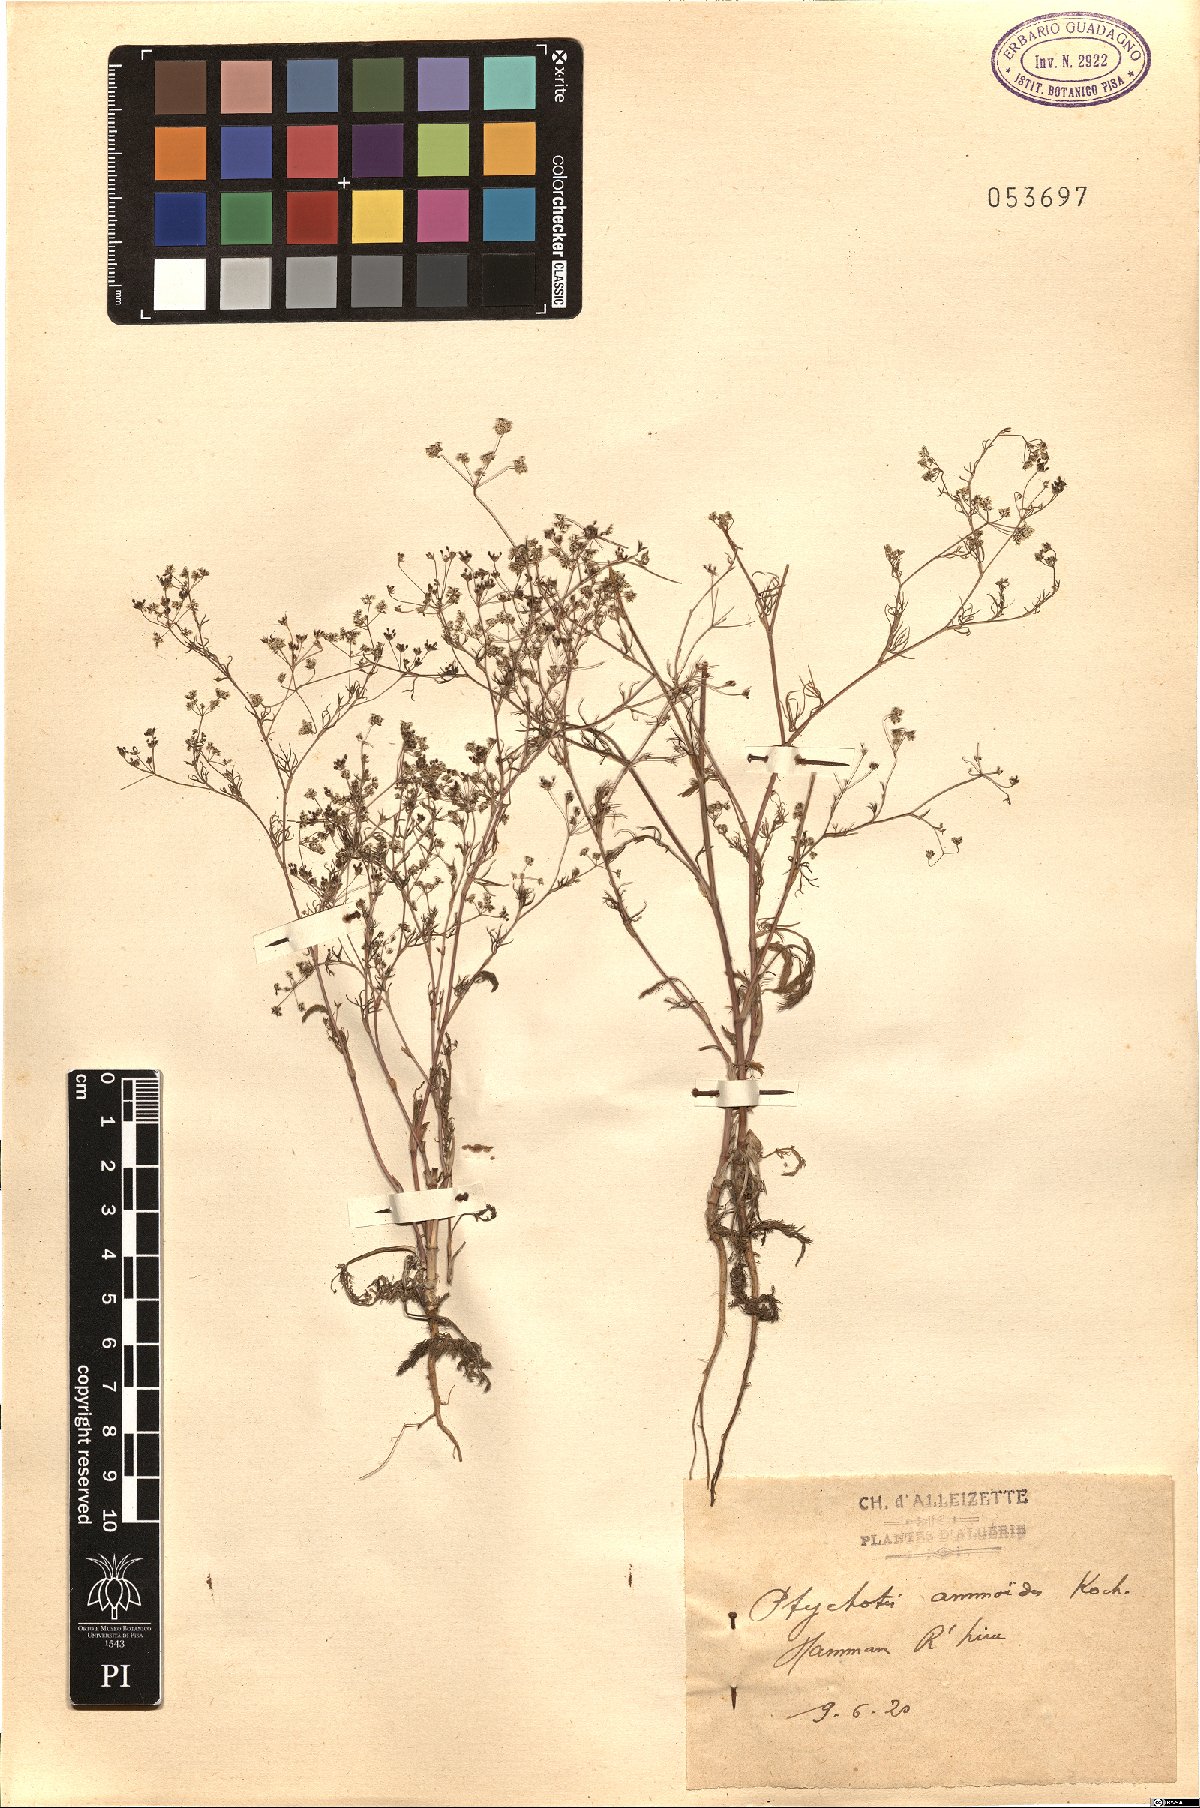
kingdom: Plantae
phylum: Tracheophyta
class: Magnoliopsida
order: Apiales
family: Apiaceae
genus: Ammoides
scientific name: Ammoides pusilla
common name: Cerfolium
